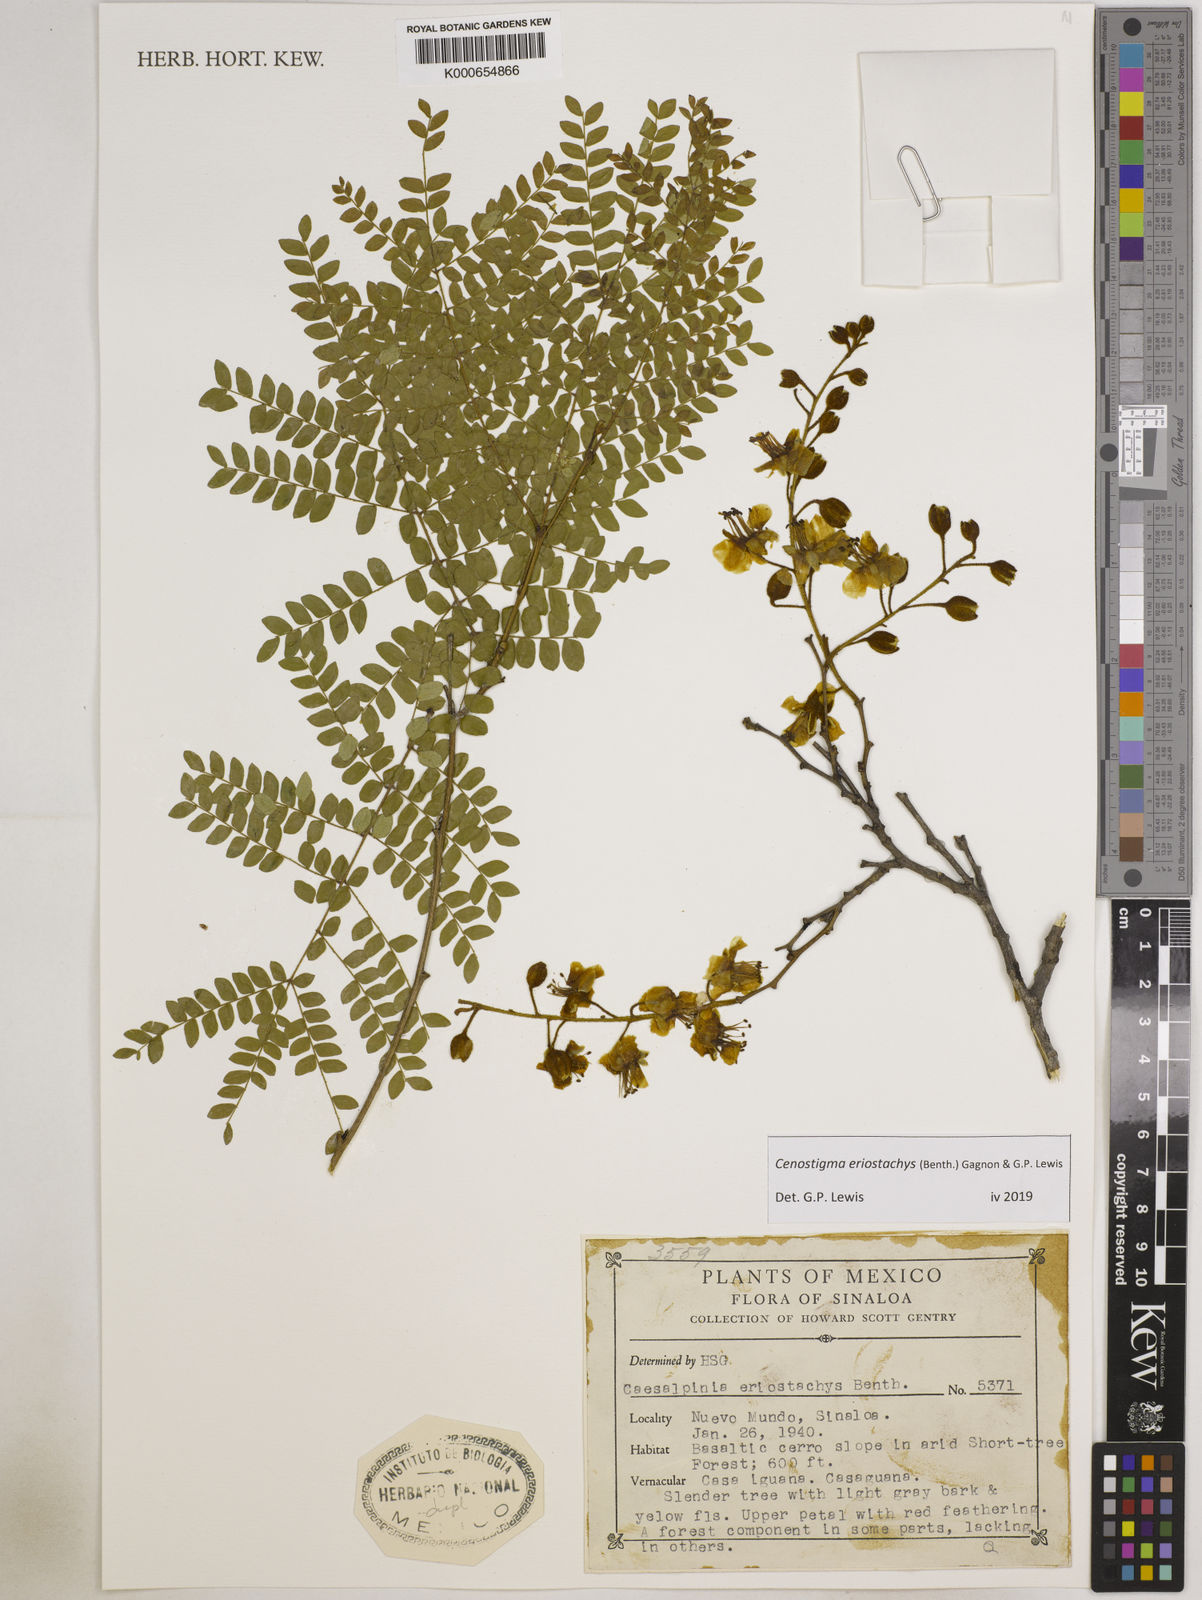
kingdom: Plantae
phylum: Tracheophyta
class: Magnoliopsida
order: Fabales
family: Fabaceae
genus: Cenostigma
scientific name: Cenostigma eriostachys
